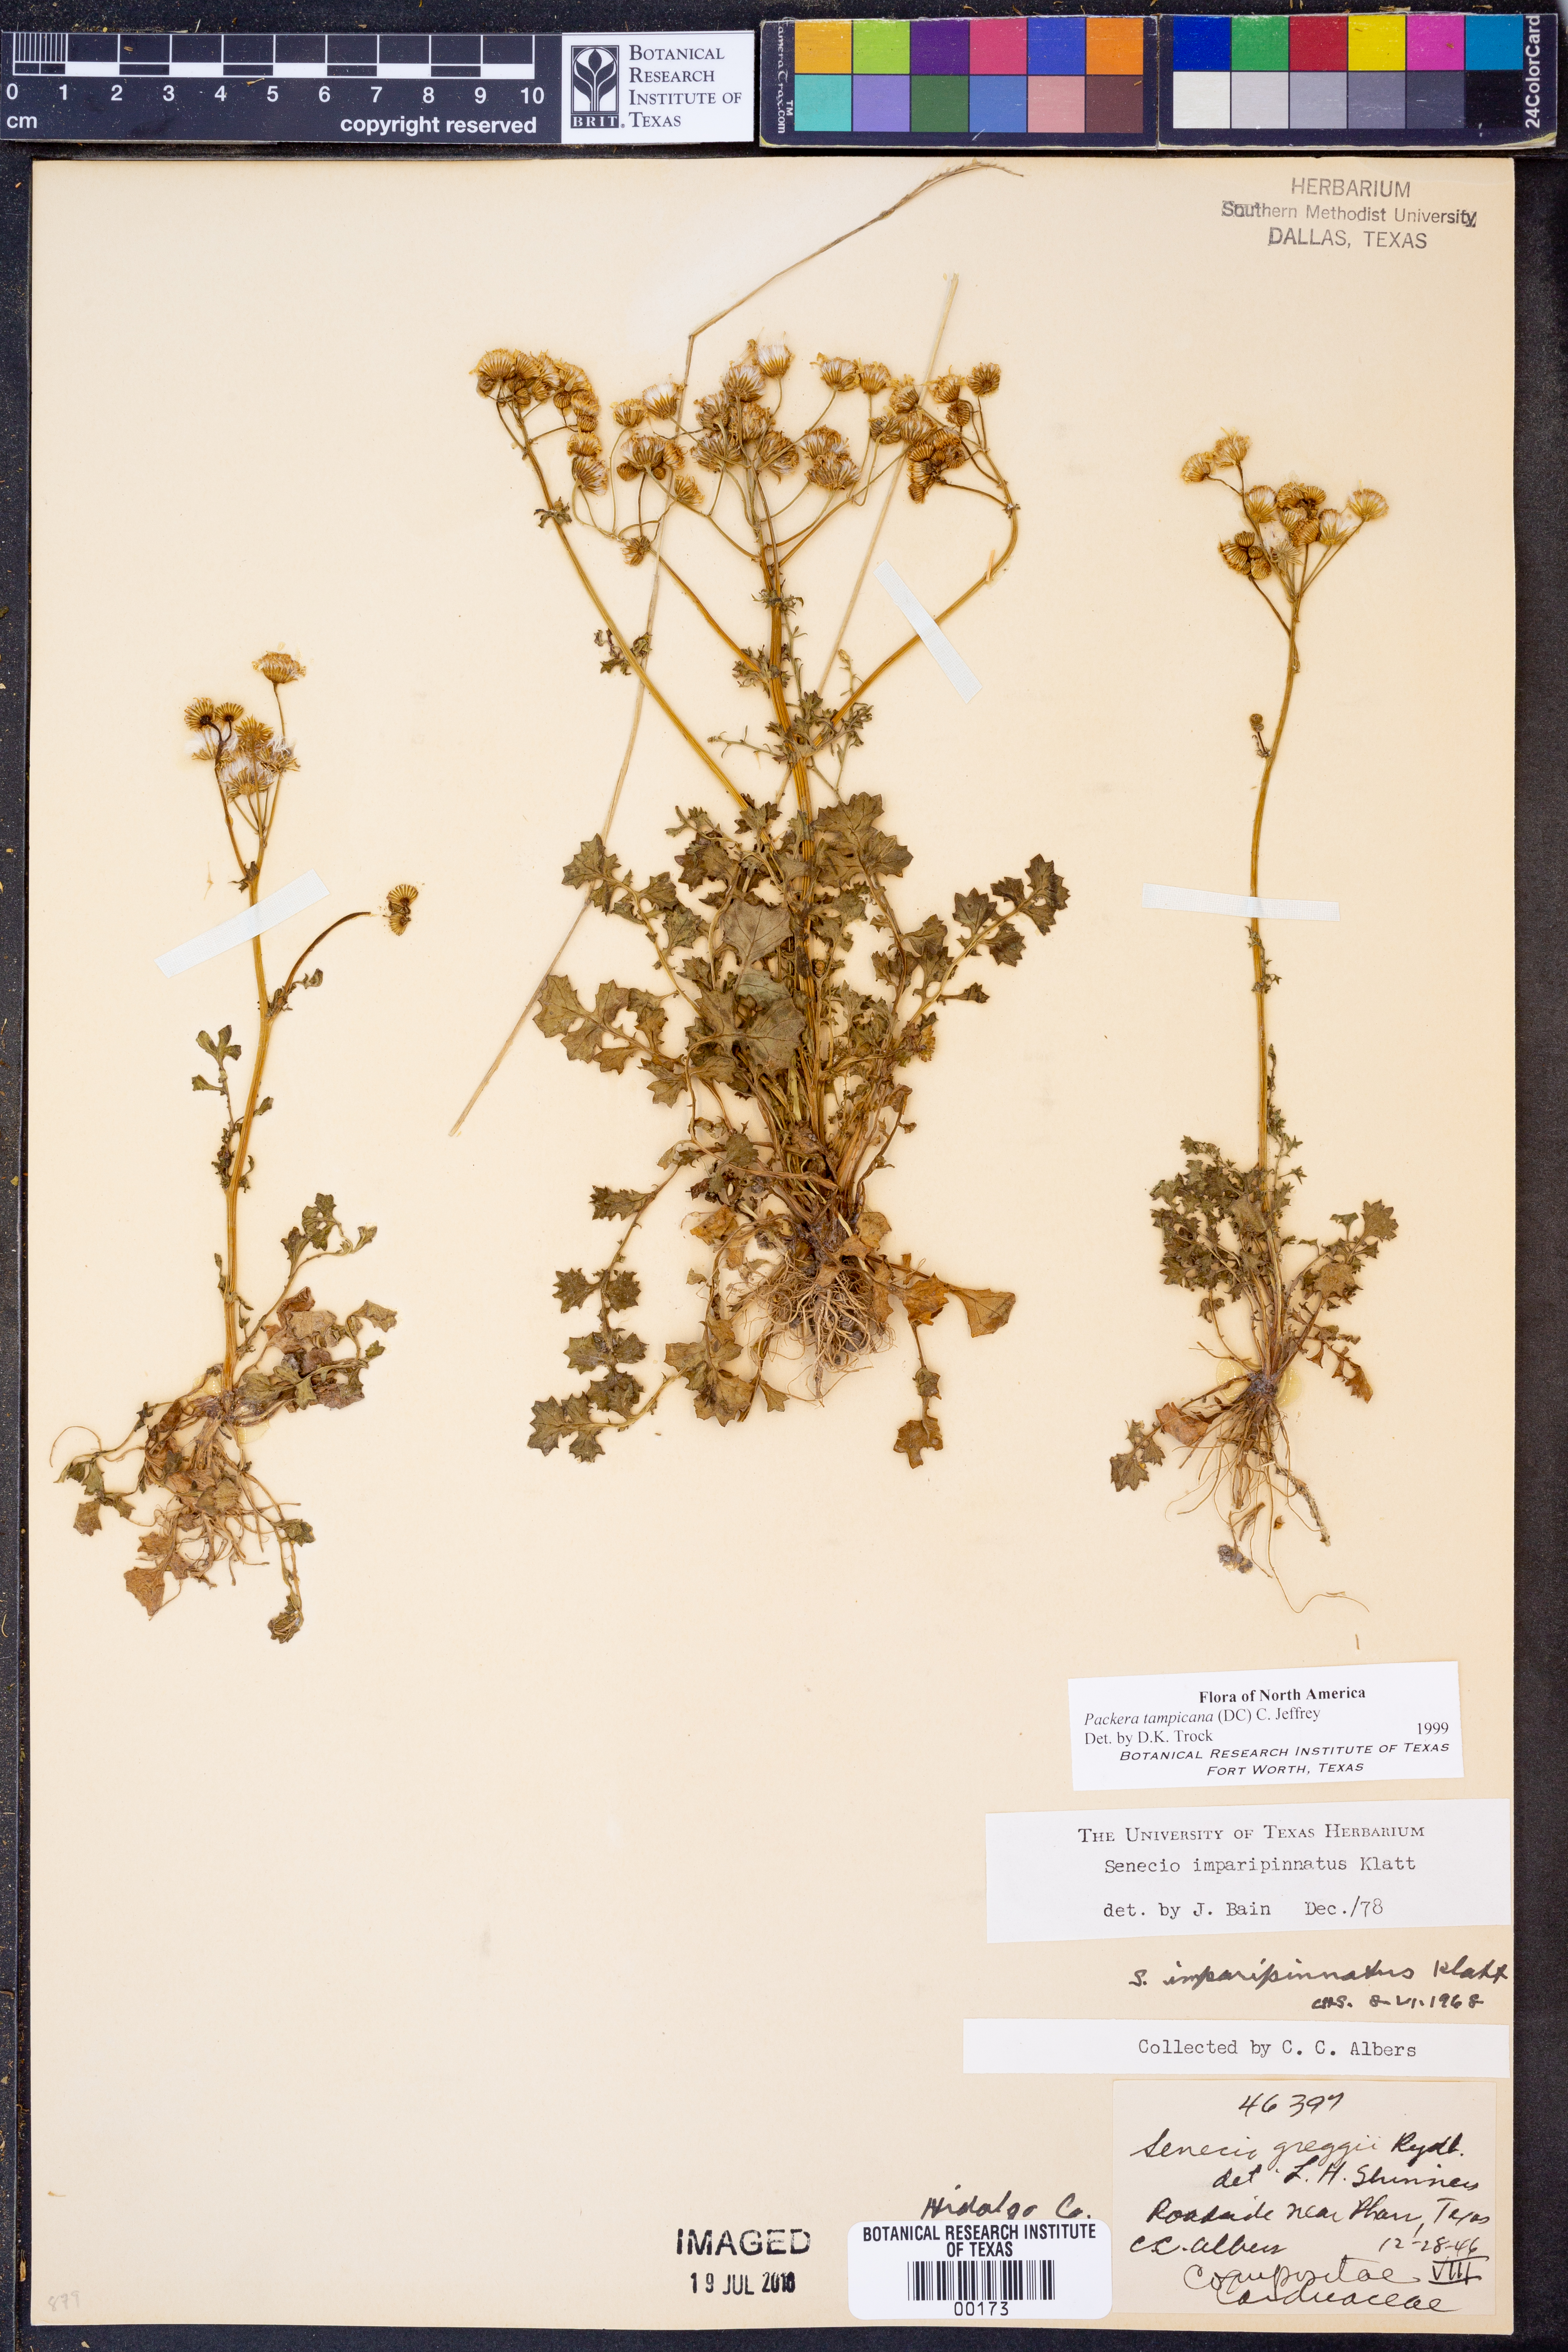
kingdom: Plantae
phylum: Tracheophyta
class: Magnoliopsida
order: Asterales
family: Asteraceae
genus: Packera
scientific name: Packera tampicana
